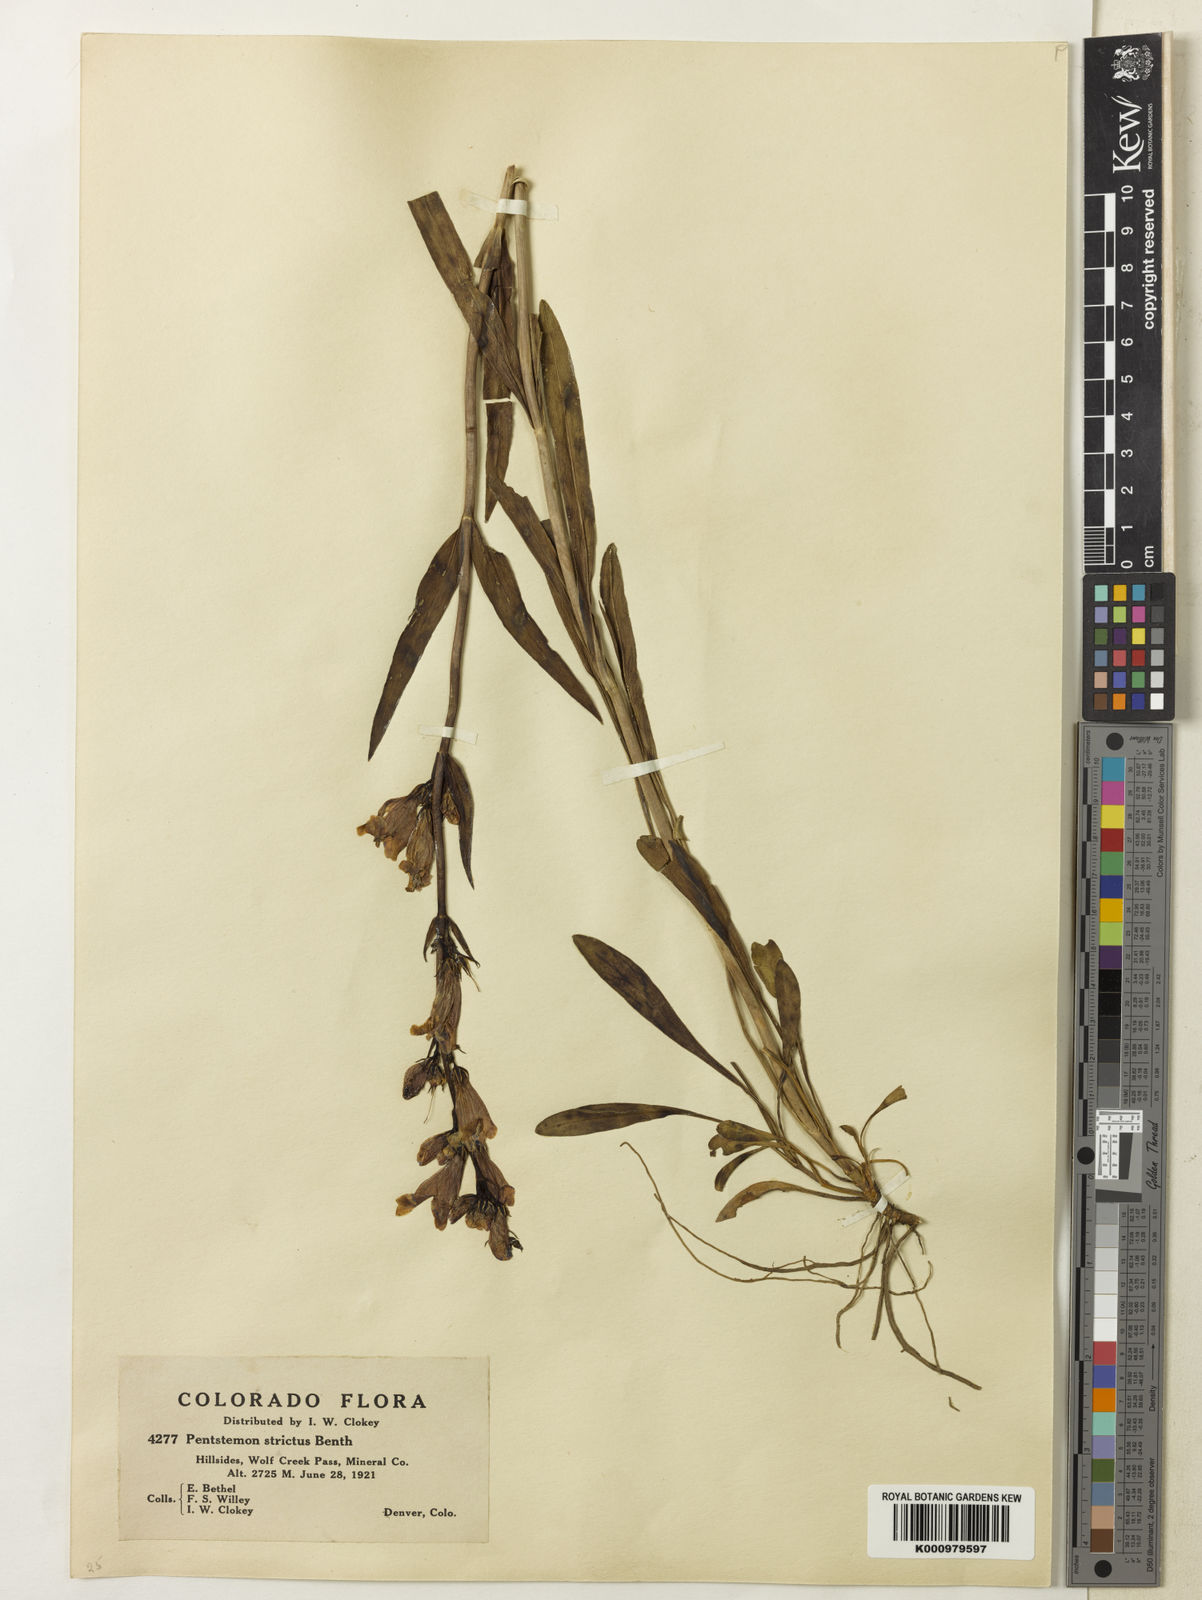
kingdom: Plantae
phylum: Tracheophyta
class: Magnoliopsida
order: Lamiales
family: Plantaginaceae
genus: Penstemon
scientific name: Penstemon strictus
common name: Rocky mountain penstemon
